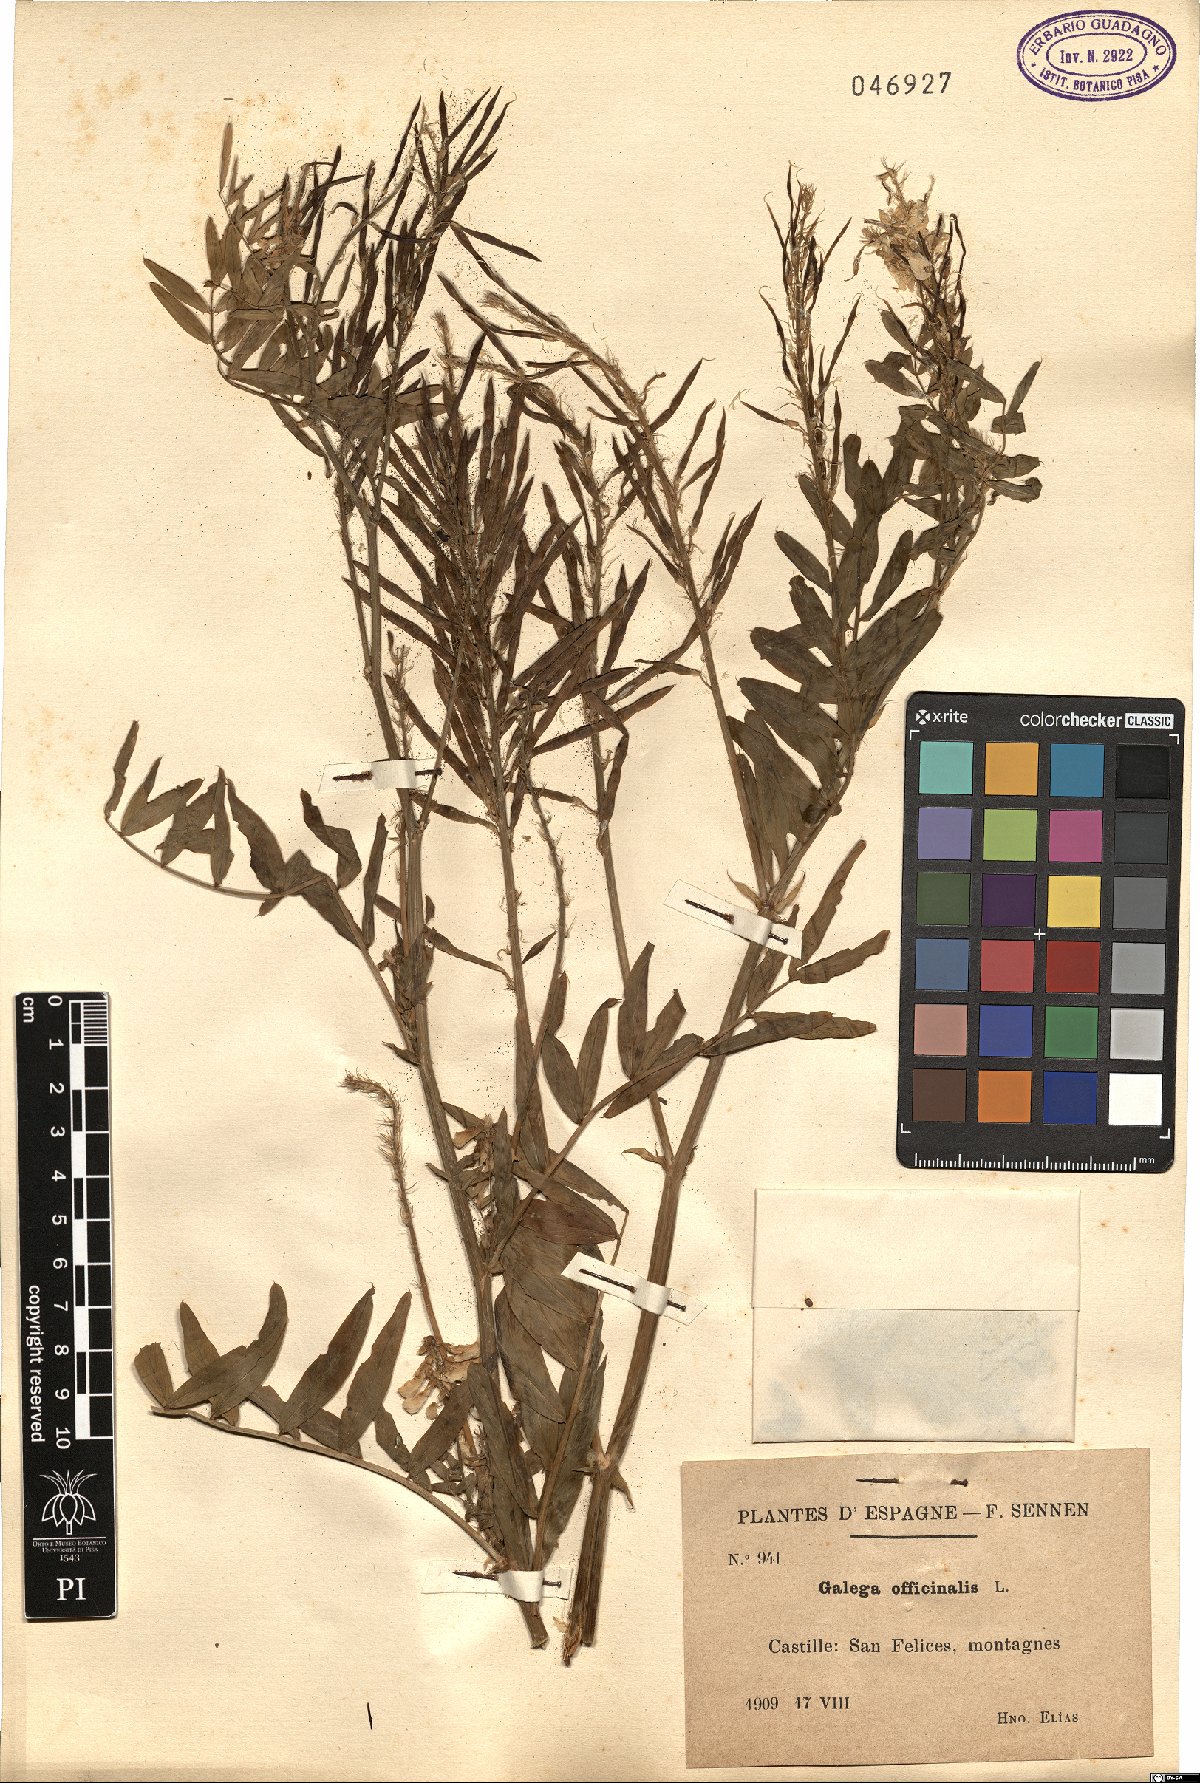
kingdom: Plantae
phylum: Tracheophyta
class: Magnoliopsida
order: Fabales
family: Fabaceae
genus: Galega
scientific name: Galega officinalis
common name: Goat's-rue
